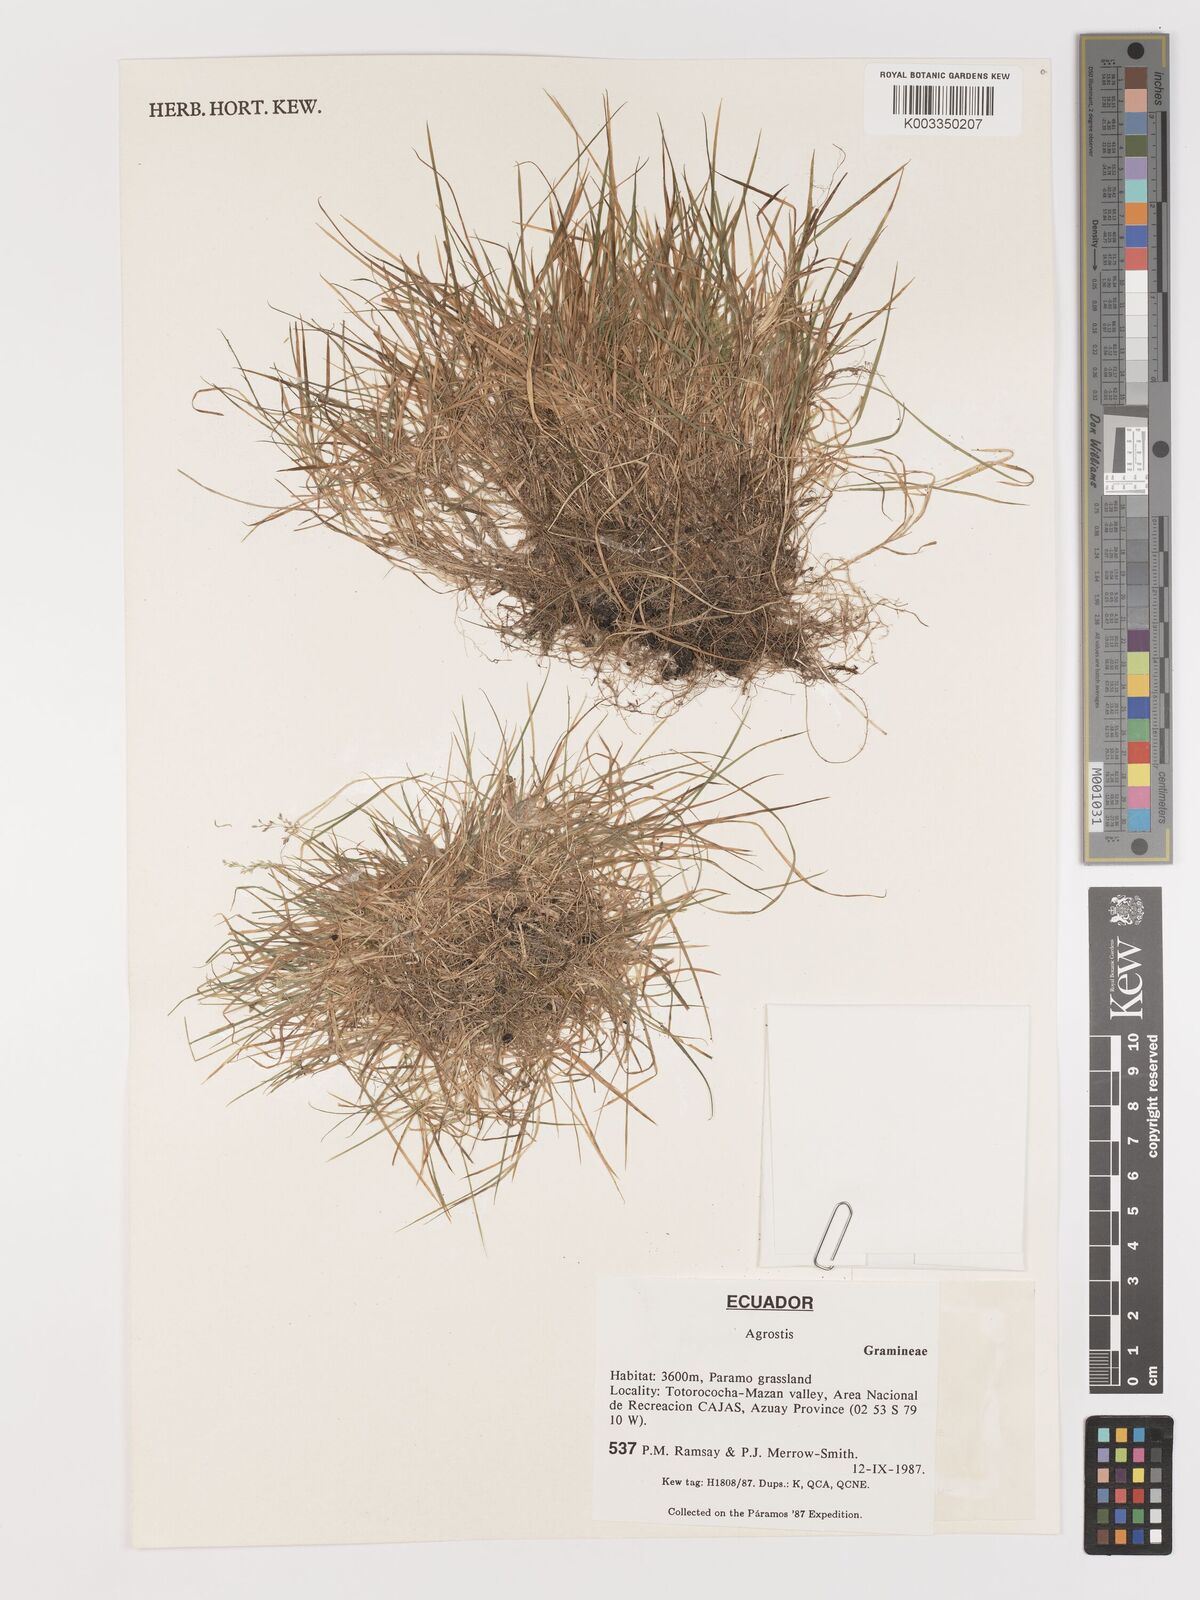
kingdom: Plantae
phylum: Tracheophyta
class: Liliopsida
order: Poales
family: Poaceae
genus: Agrostis
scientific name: Agrostis
